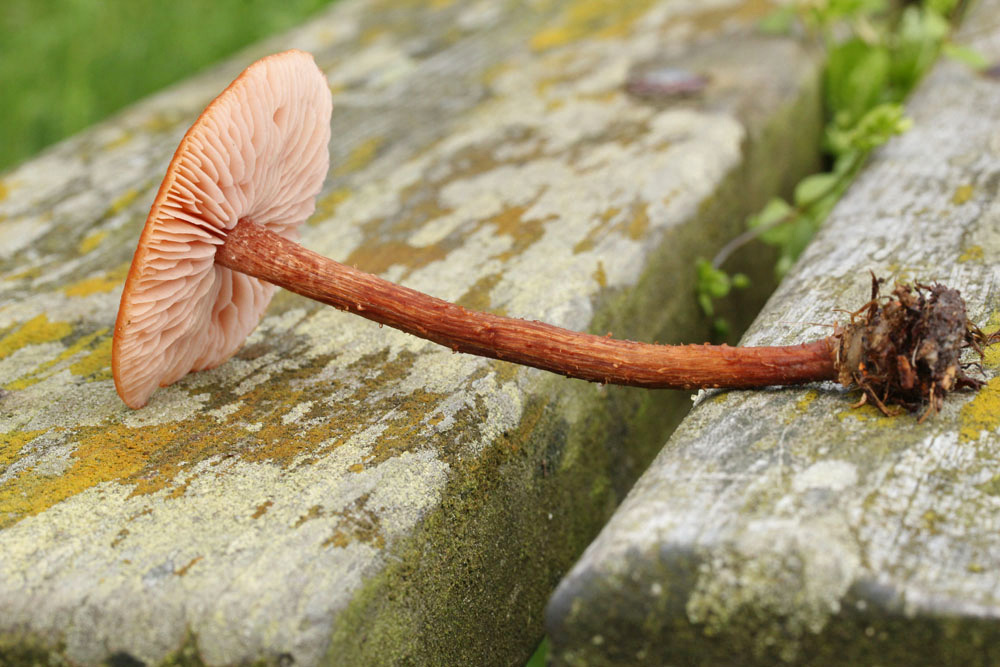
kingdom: Fungi
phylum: Basidiomycota
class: Agaricomycetes
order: Agaricales
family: Hydnangiaceae
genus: Laccaria
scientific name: Laccaria proxima
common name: stor ametysthat
